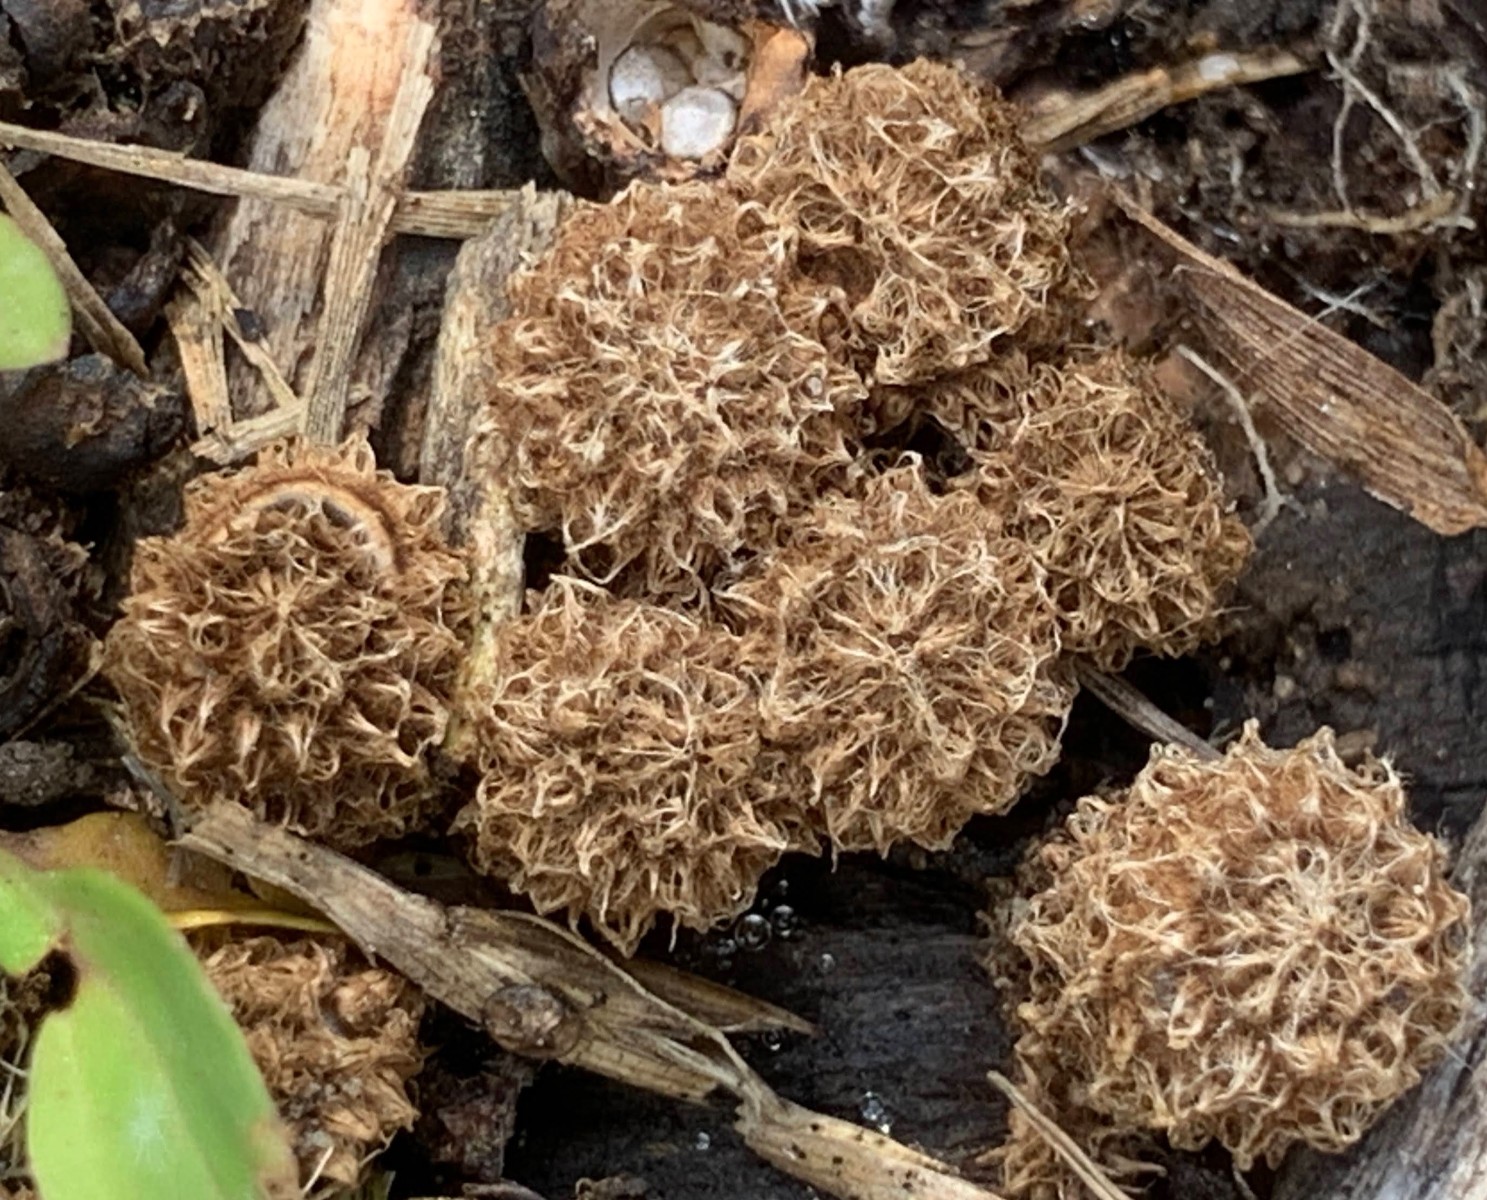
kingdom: Fungi
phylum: Basidiomycota
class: Agaricomycetes
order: Agaricales
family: Agaricaceae
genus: Cyathus
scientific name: Cyathus striatus
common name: stribet redesvamp
